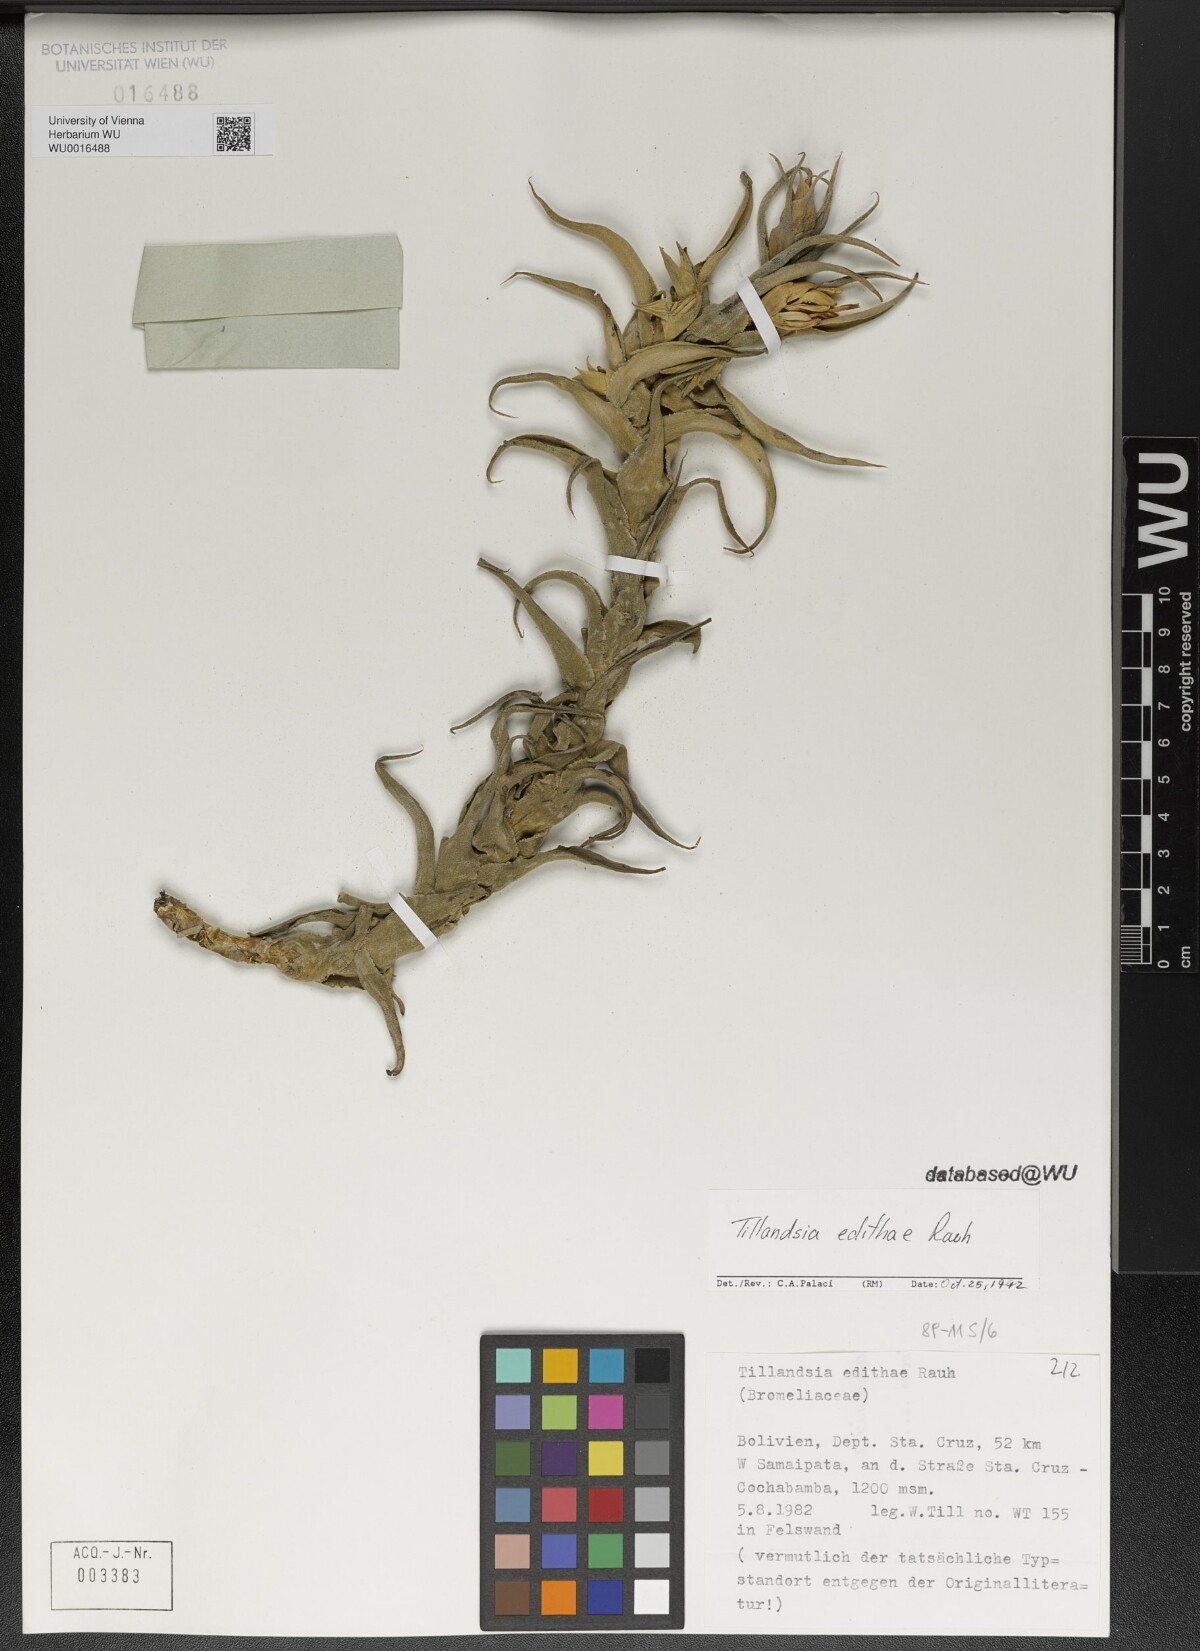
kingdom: Plantae
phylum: Tracheophyta
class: Liliopsida
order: Poales
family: Bromeliaceae
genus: Tillandsia
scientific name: Tillandsia edithae
